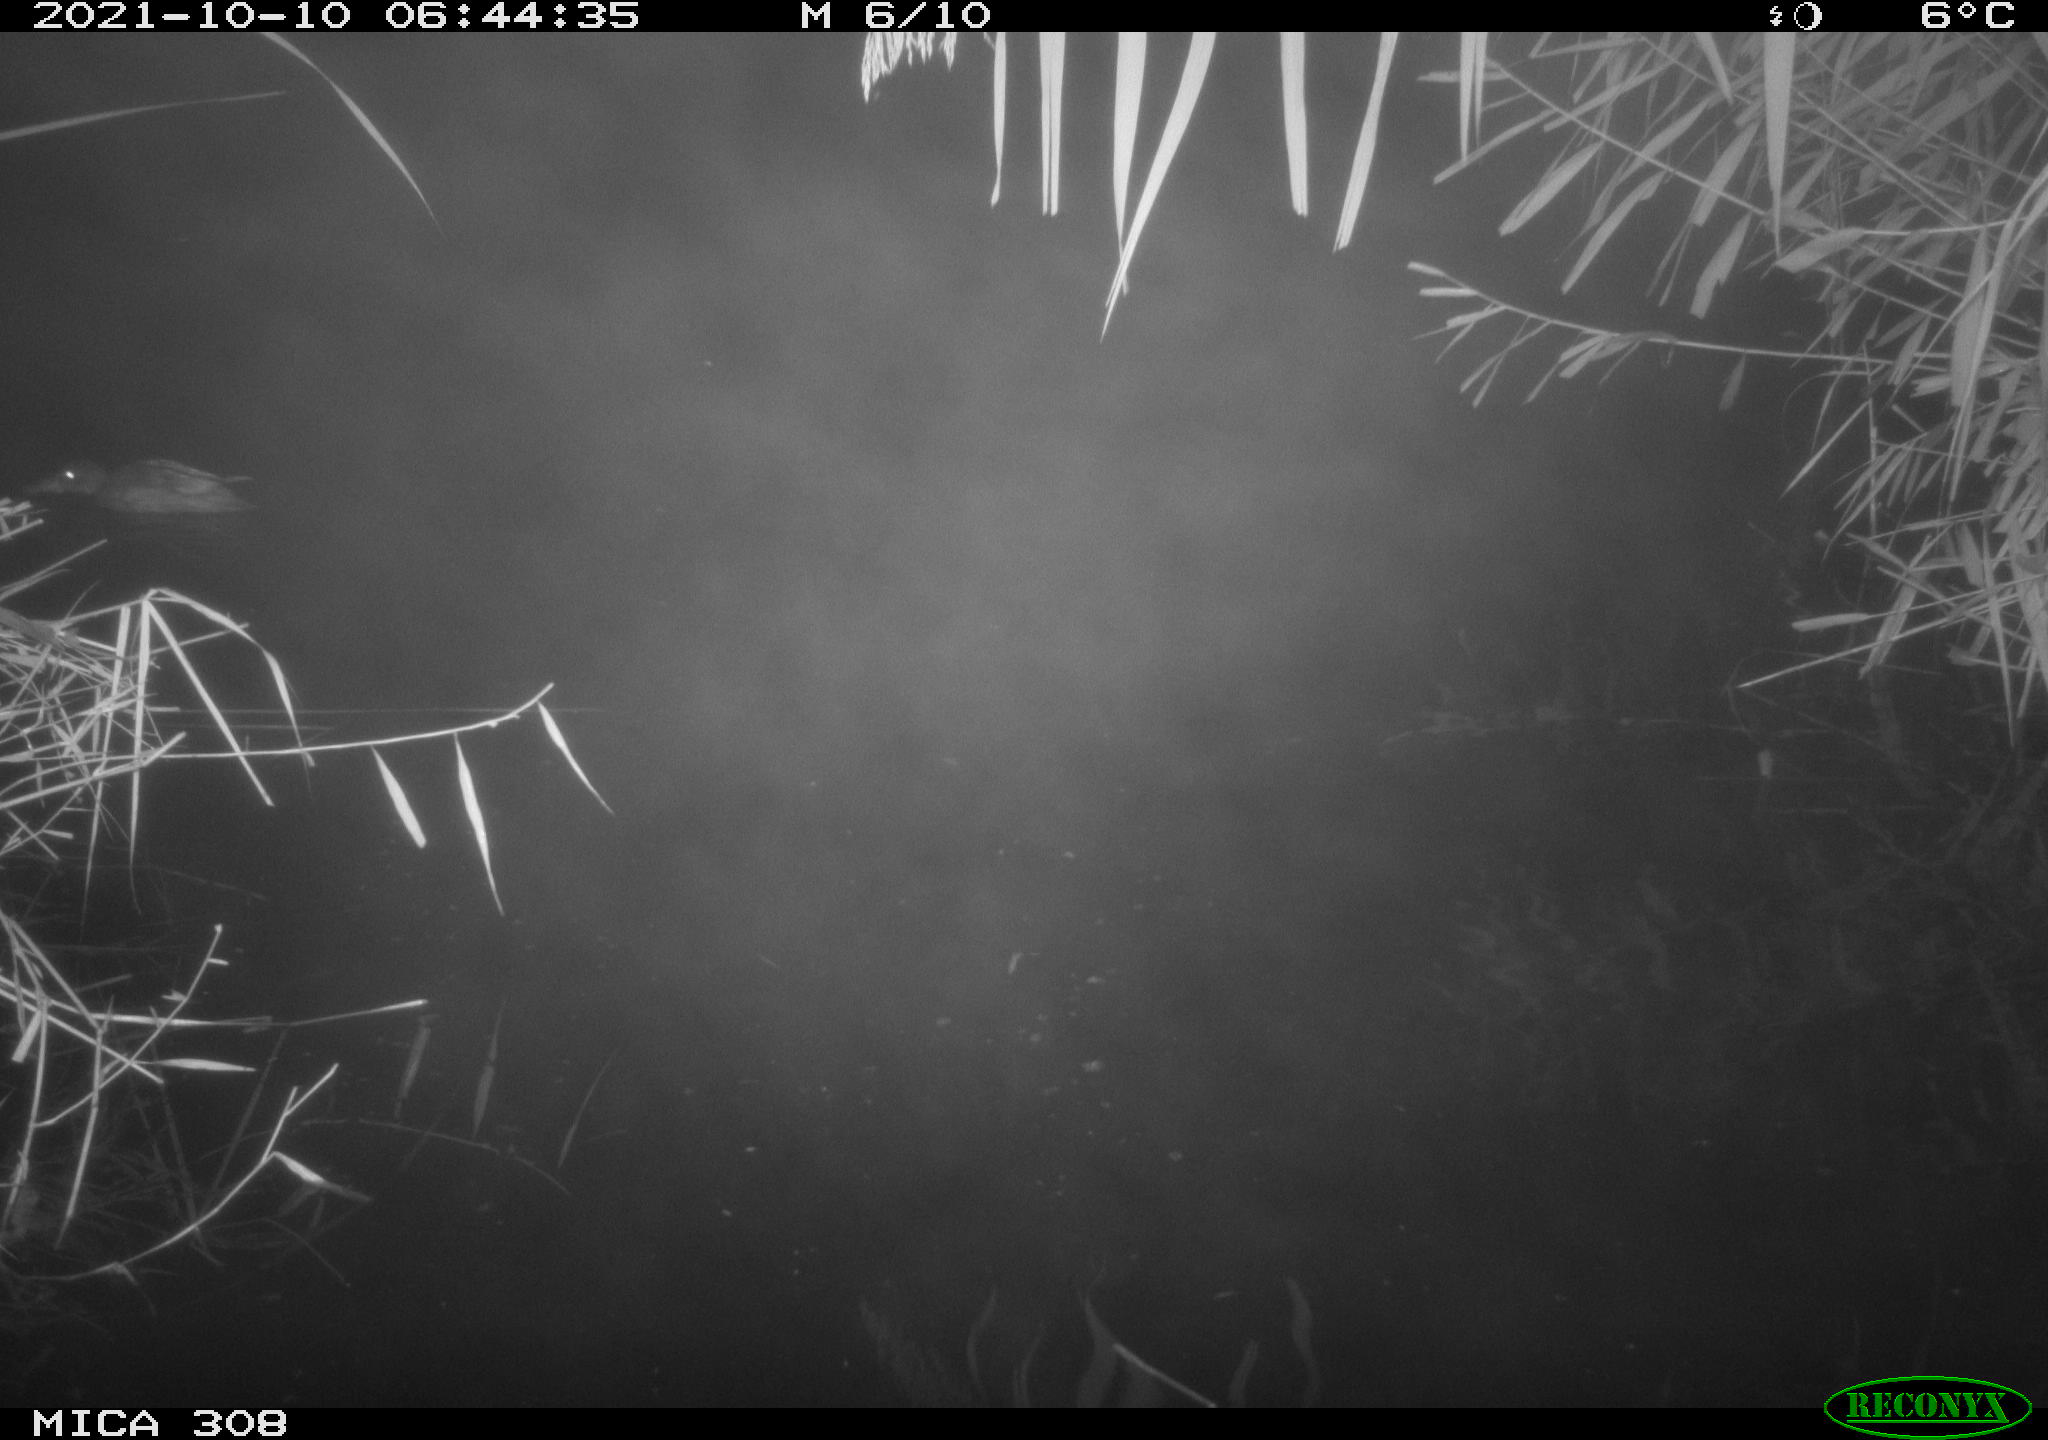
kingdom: Animalia
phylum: Chordata
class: Aves
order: Anseriformes
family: Anatidae
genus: Spatula
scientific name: Spatula clypeata
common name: Northern shoveler
